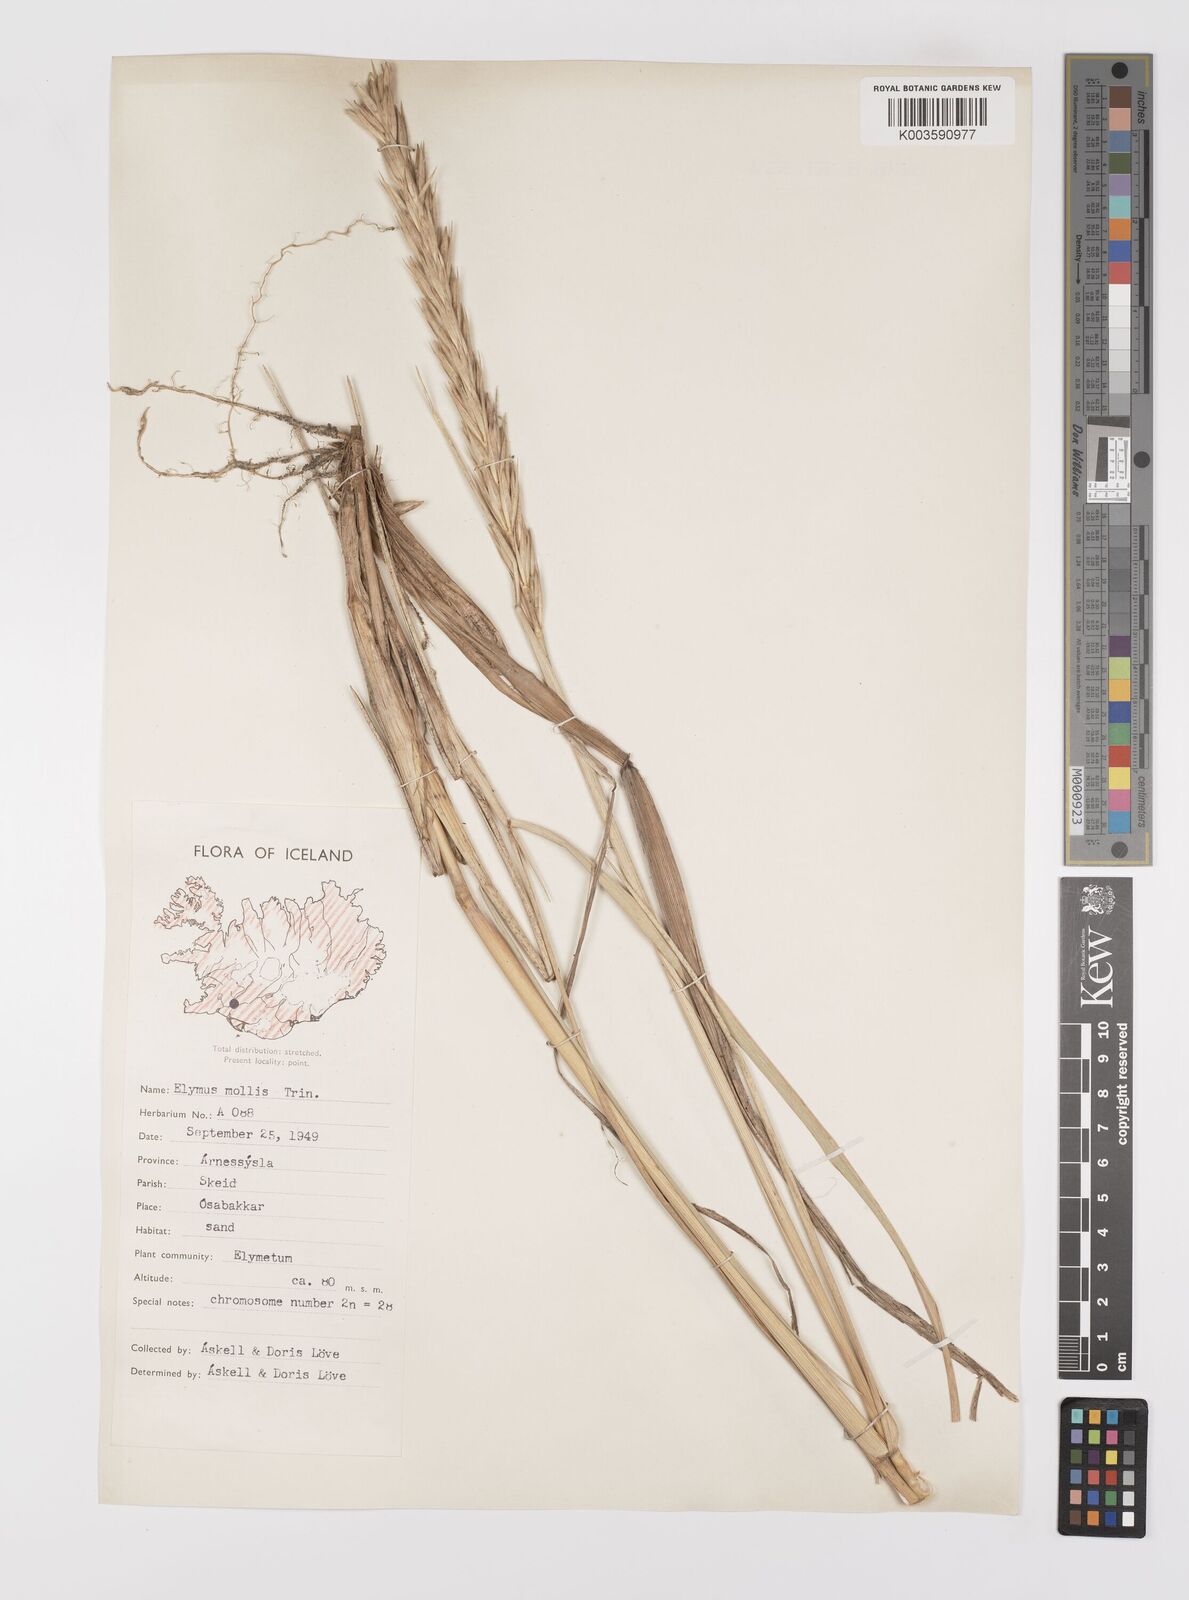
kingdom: Plantae
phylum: Tracheophyta
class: Liliopsida
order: Poales
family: Poaceae
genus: Leymus
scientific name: Leymus arenarius
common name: Lyme-grass
